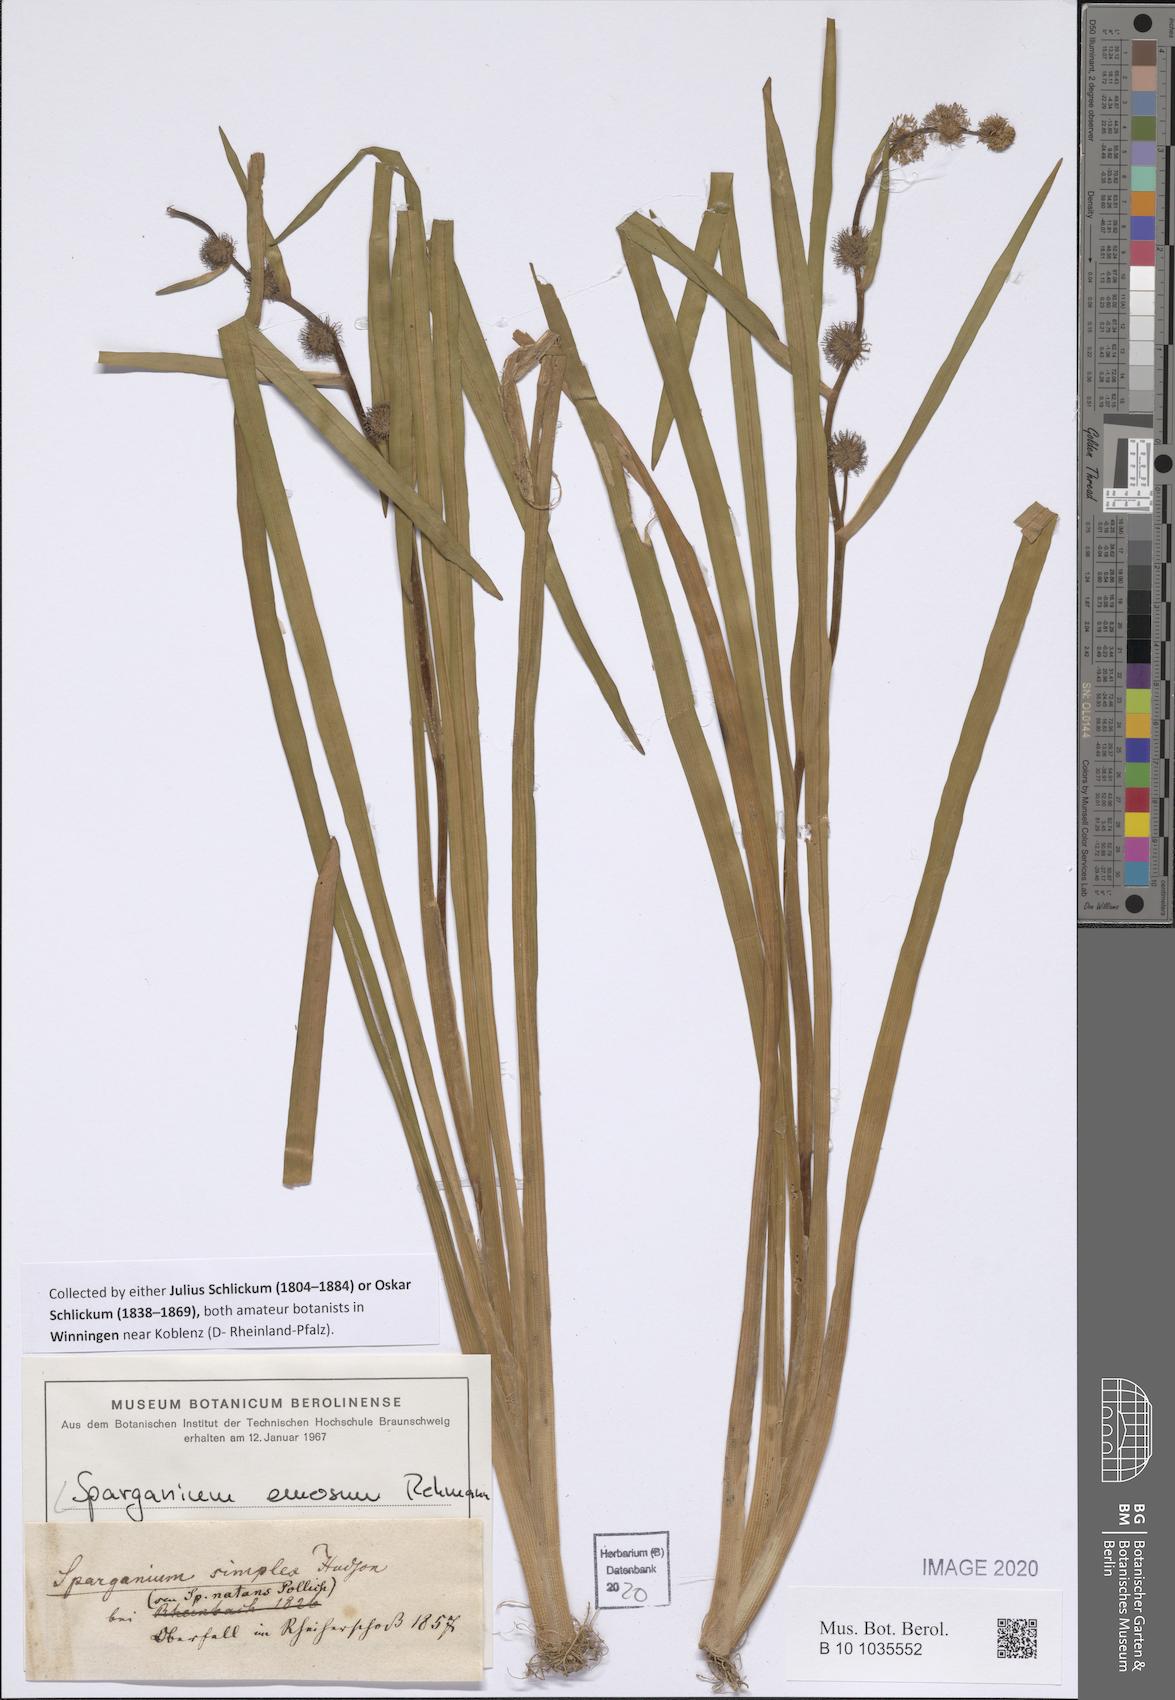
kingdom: Plantae
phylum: Tracheophyta
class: Liliopsida
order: Poales
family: Typhaceae
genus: Sparganium
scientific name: Sparganium emersum
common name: Unbranched bur-reed
